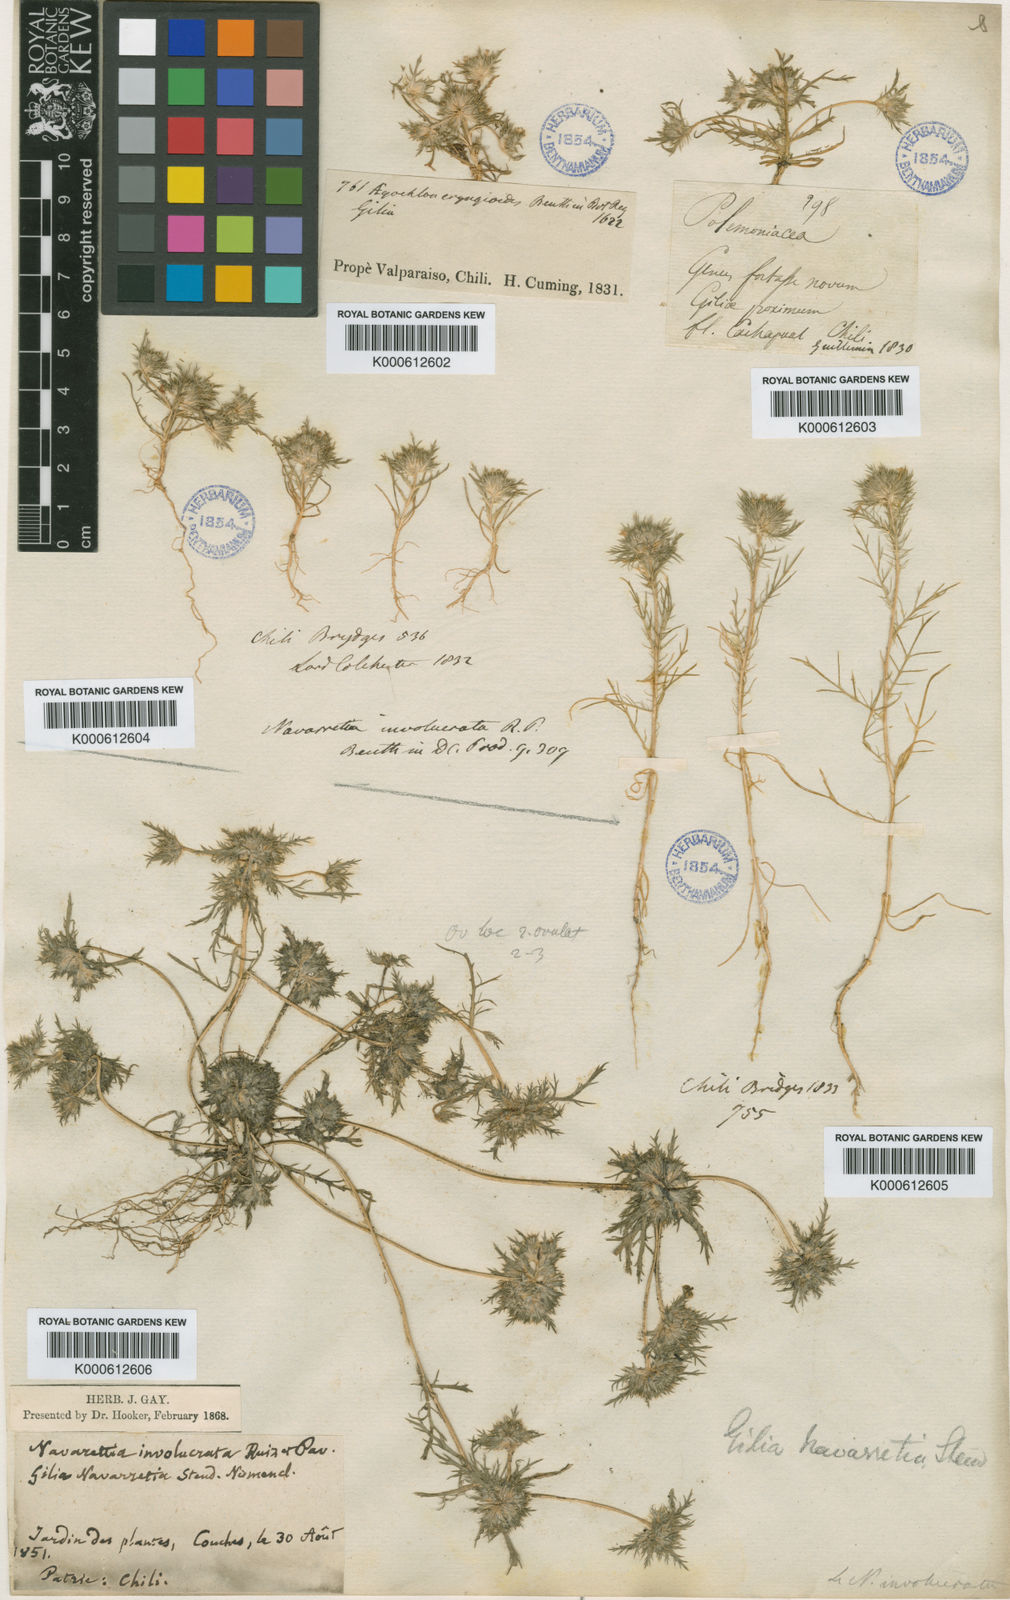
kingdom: Plantae
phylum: Tracheophyta
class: Magnoliopsida
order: Ericales
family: Polemoniaceae
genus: Navarretia
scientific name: Navarretia involucrata
